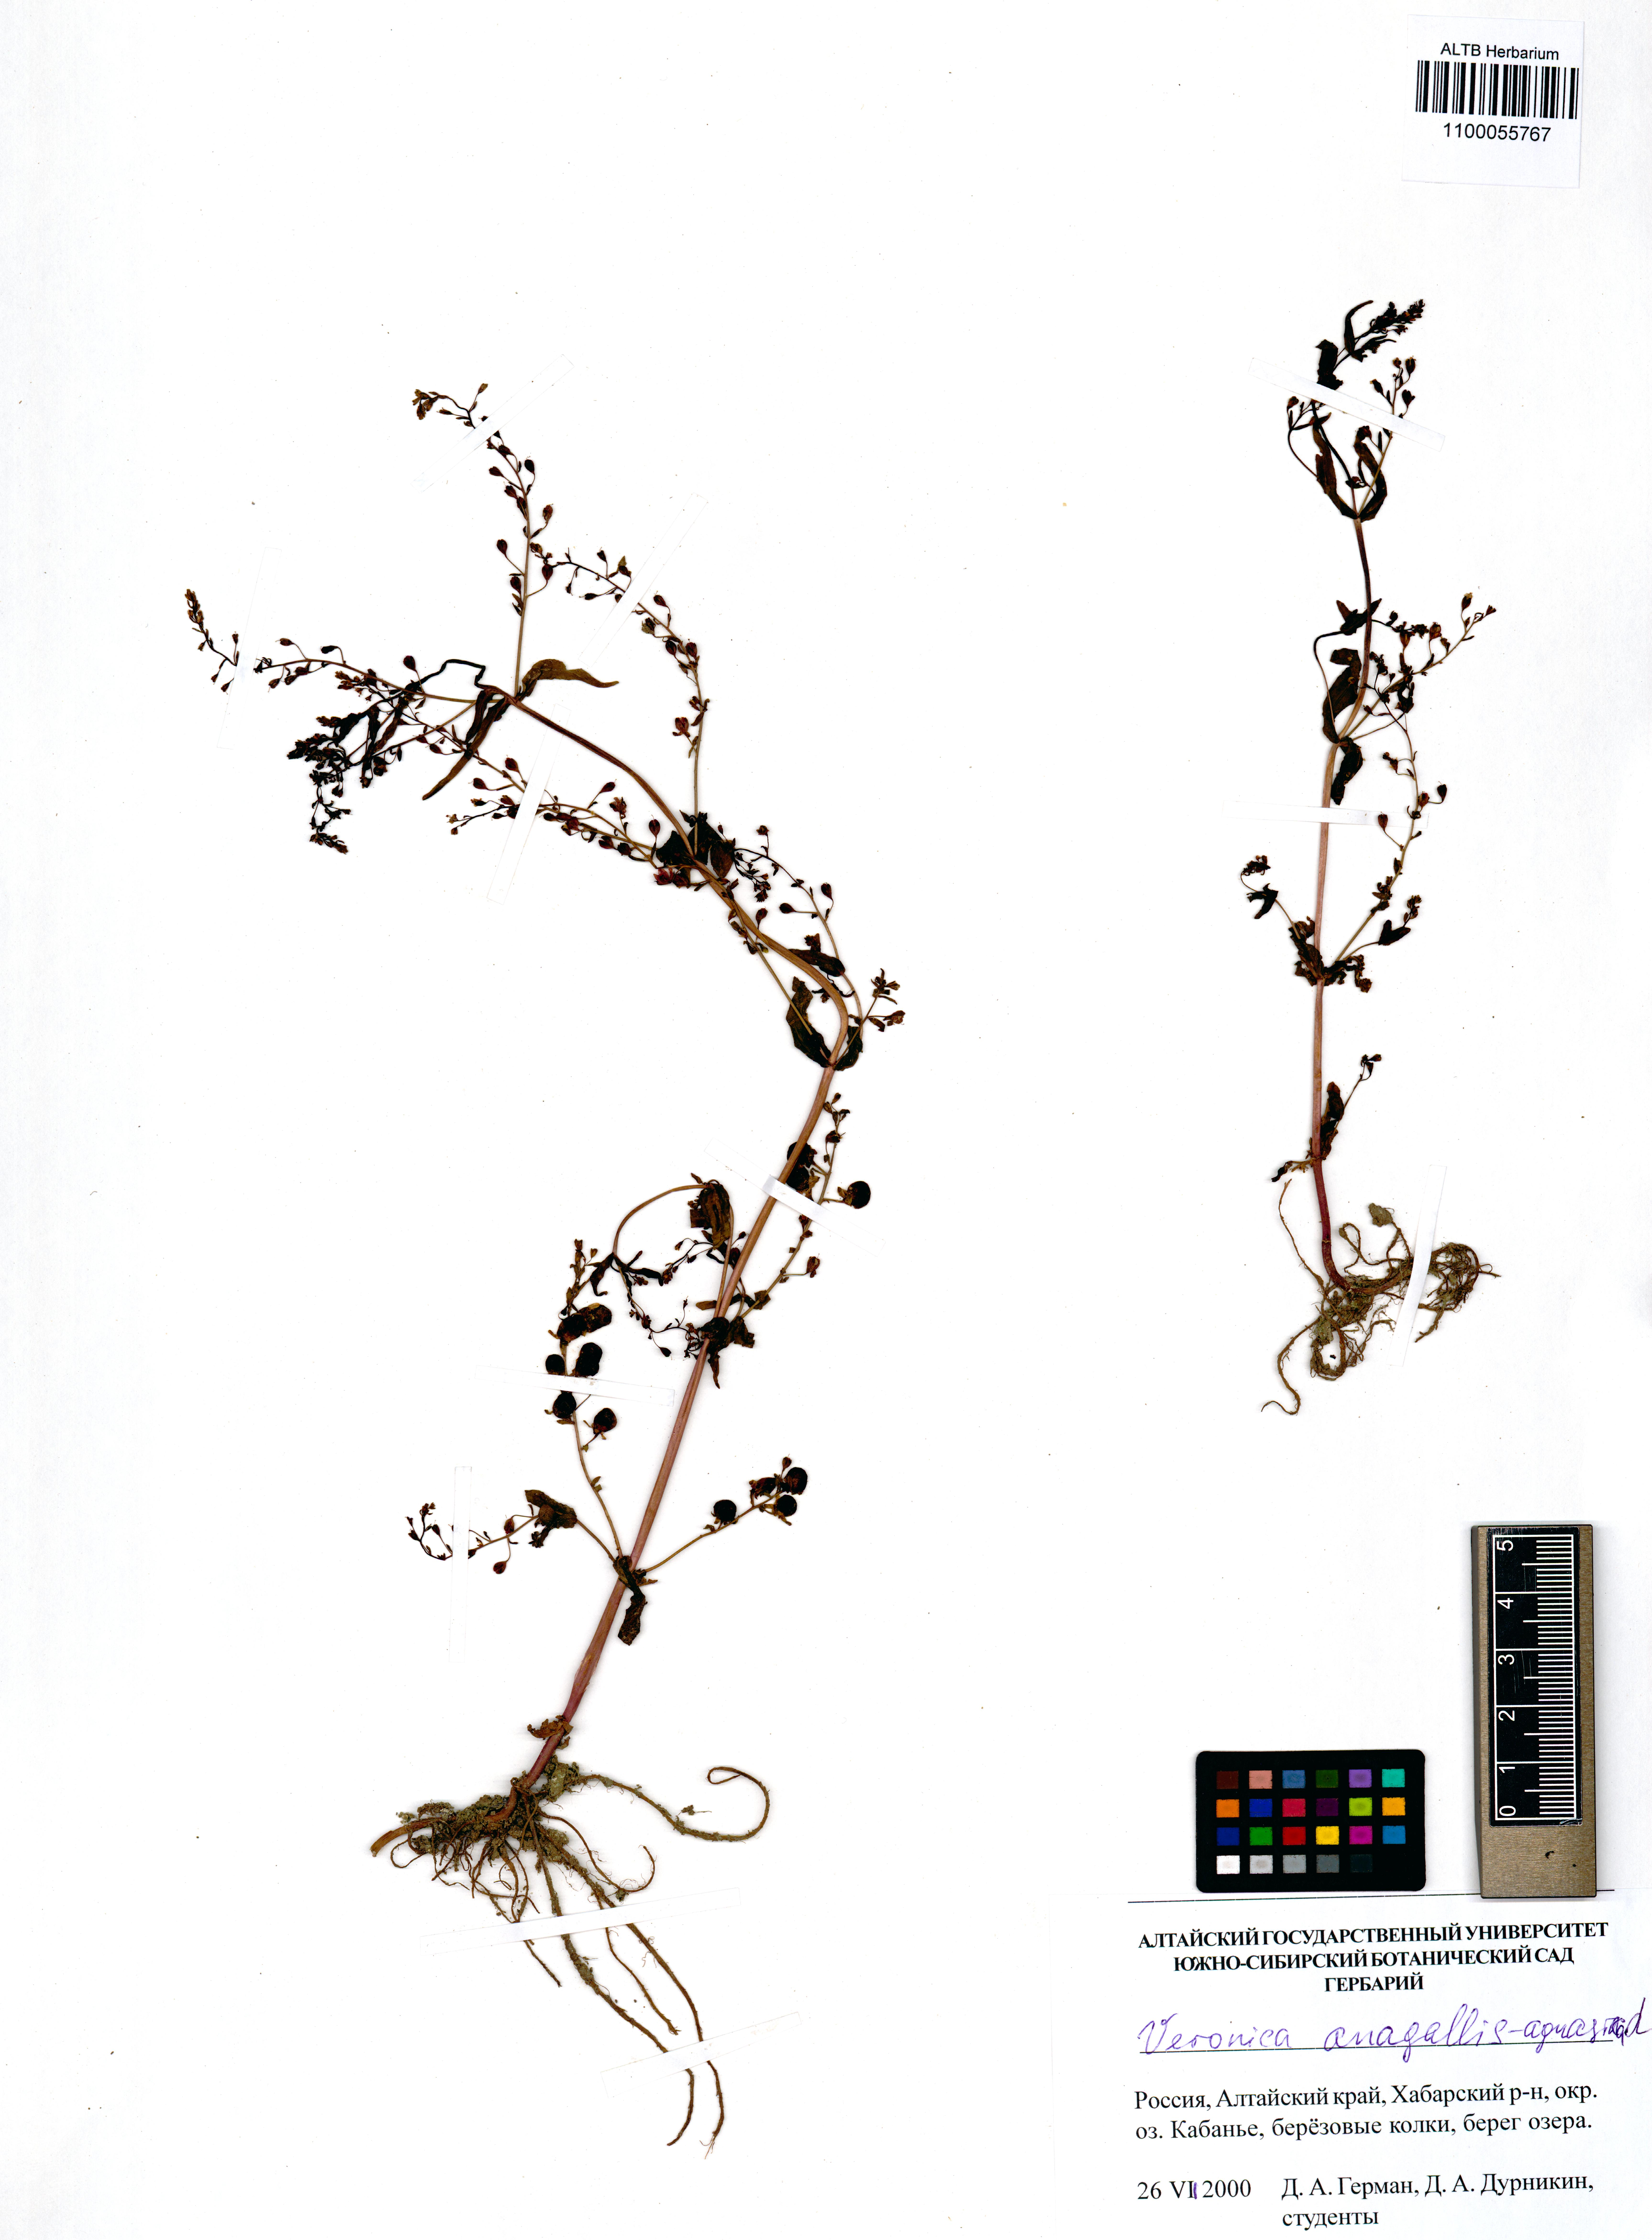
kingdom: Plantae
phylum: Tracheophyta
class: Magnoliopsida
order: Lamiales
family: Plantaginaceae
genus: Veronica
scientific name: Veronica anagallis-aquatica
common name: Water speedwell
